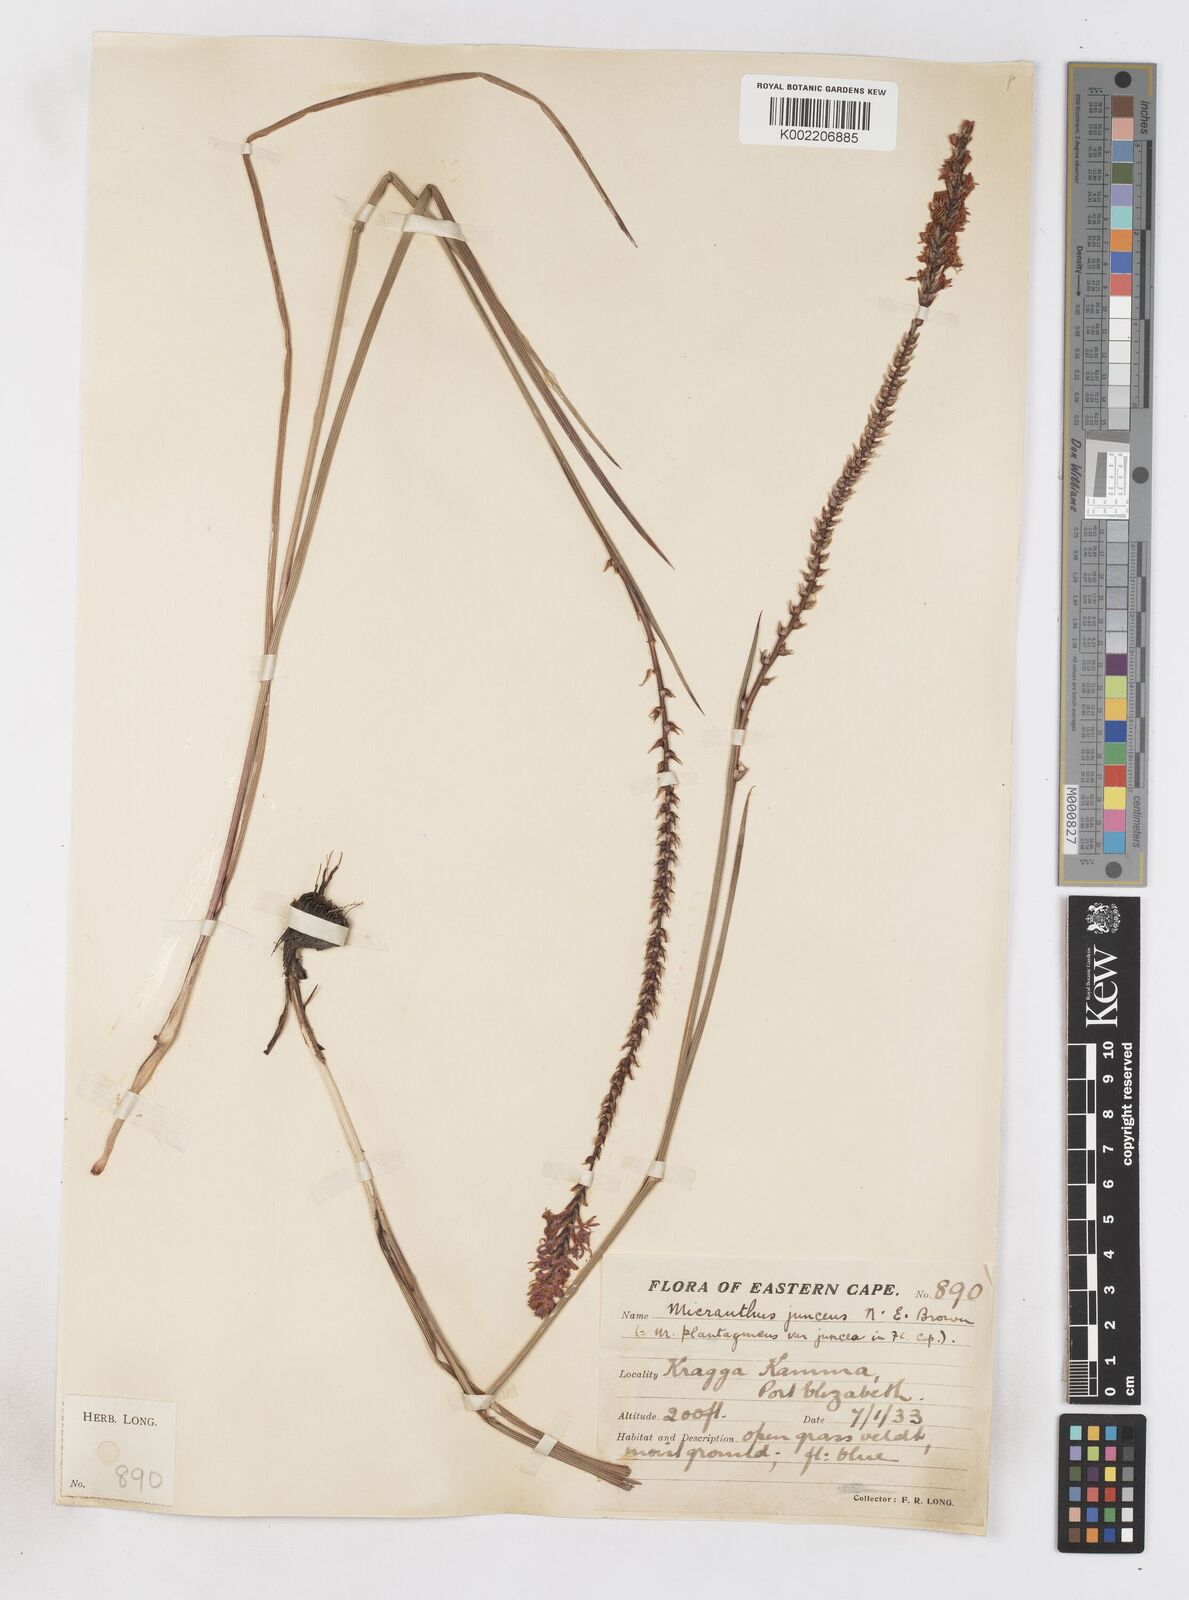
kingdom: Plantae
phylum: Tracheophyta
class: Liliopsida
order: Asparagales
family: Iridaceae
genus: Micranthus
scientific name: Micranthus plantagineus
